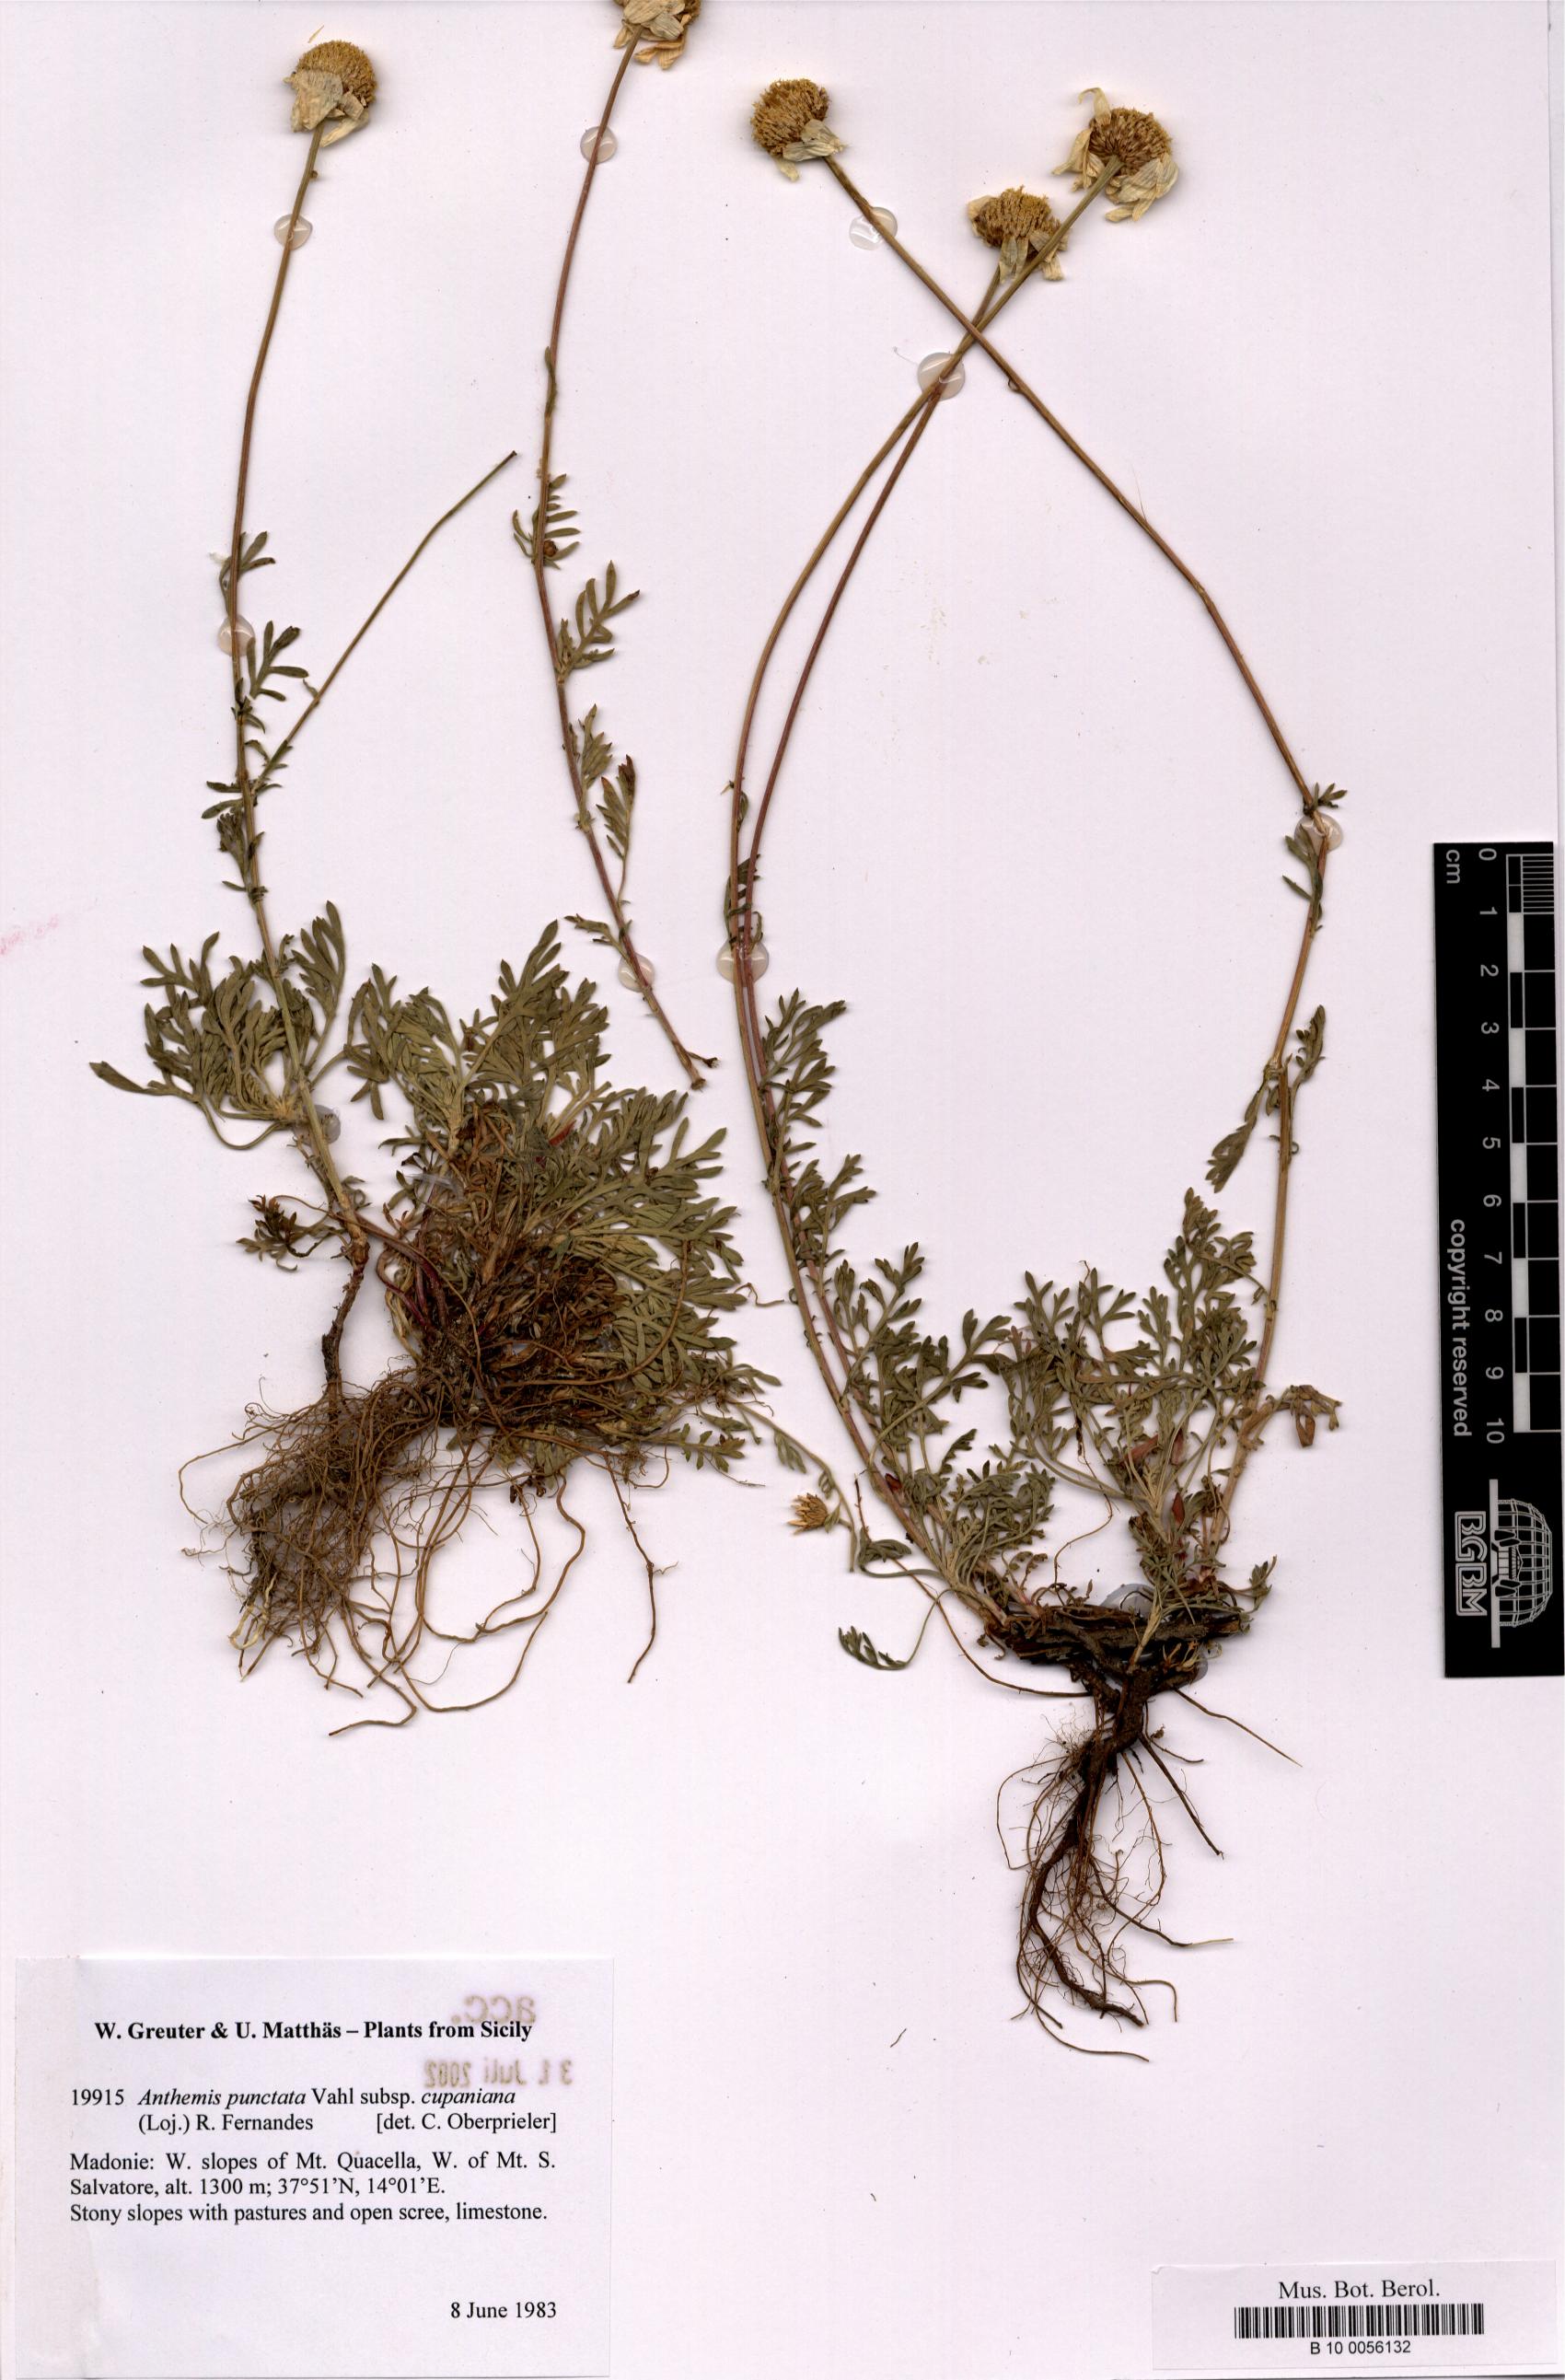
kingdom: Plantae
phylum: Tracheophyta
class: Magnoliopsida
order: Asterales
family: Asteraceae
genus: Anthemis
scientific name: Anthemis cupaniana
